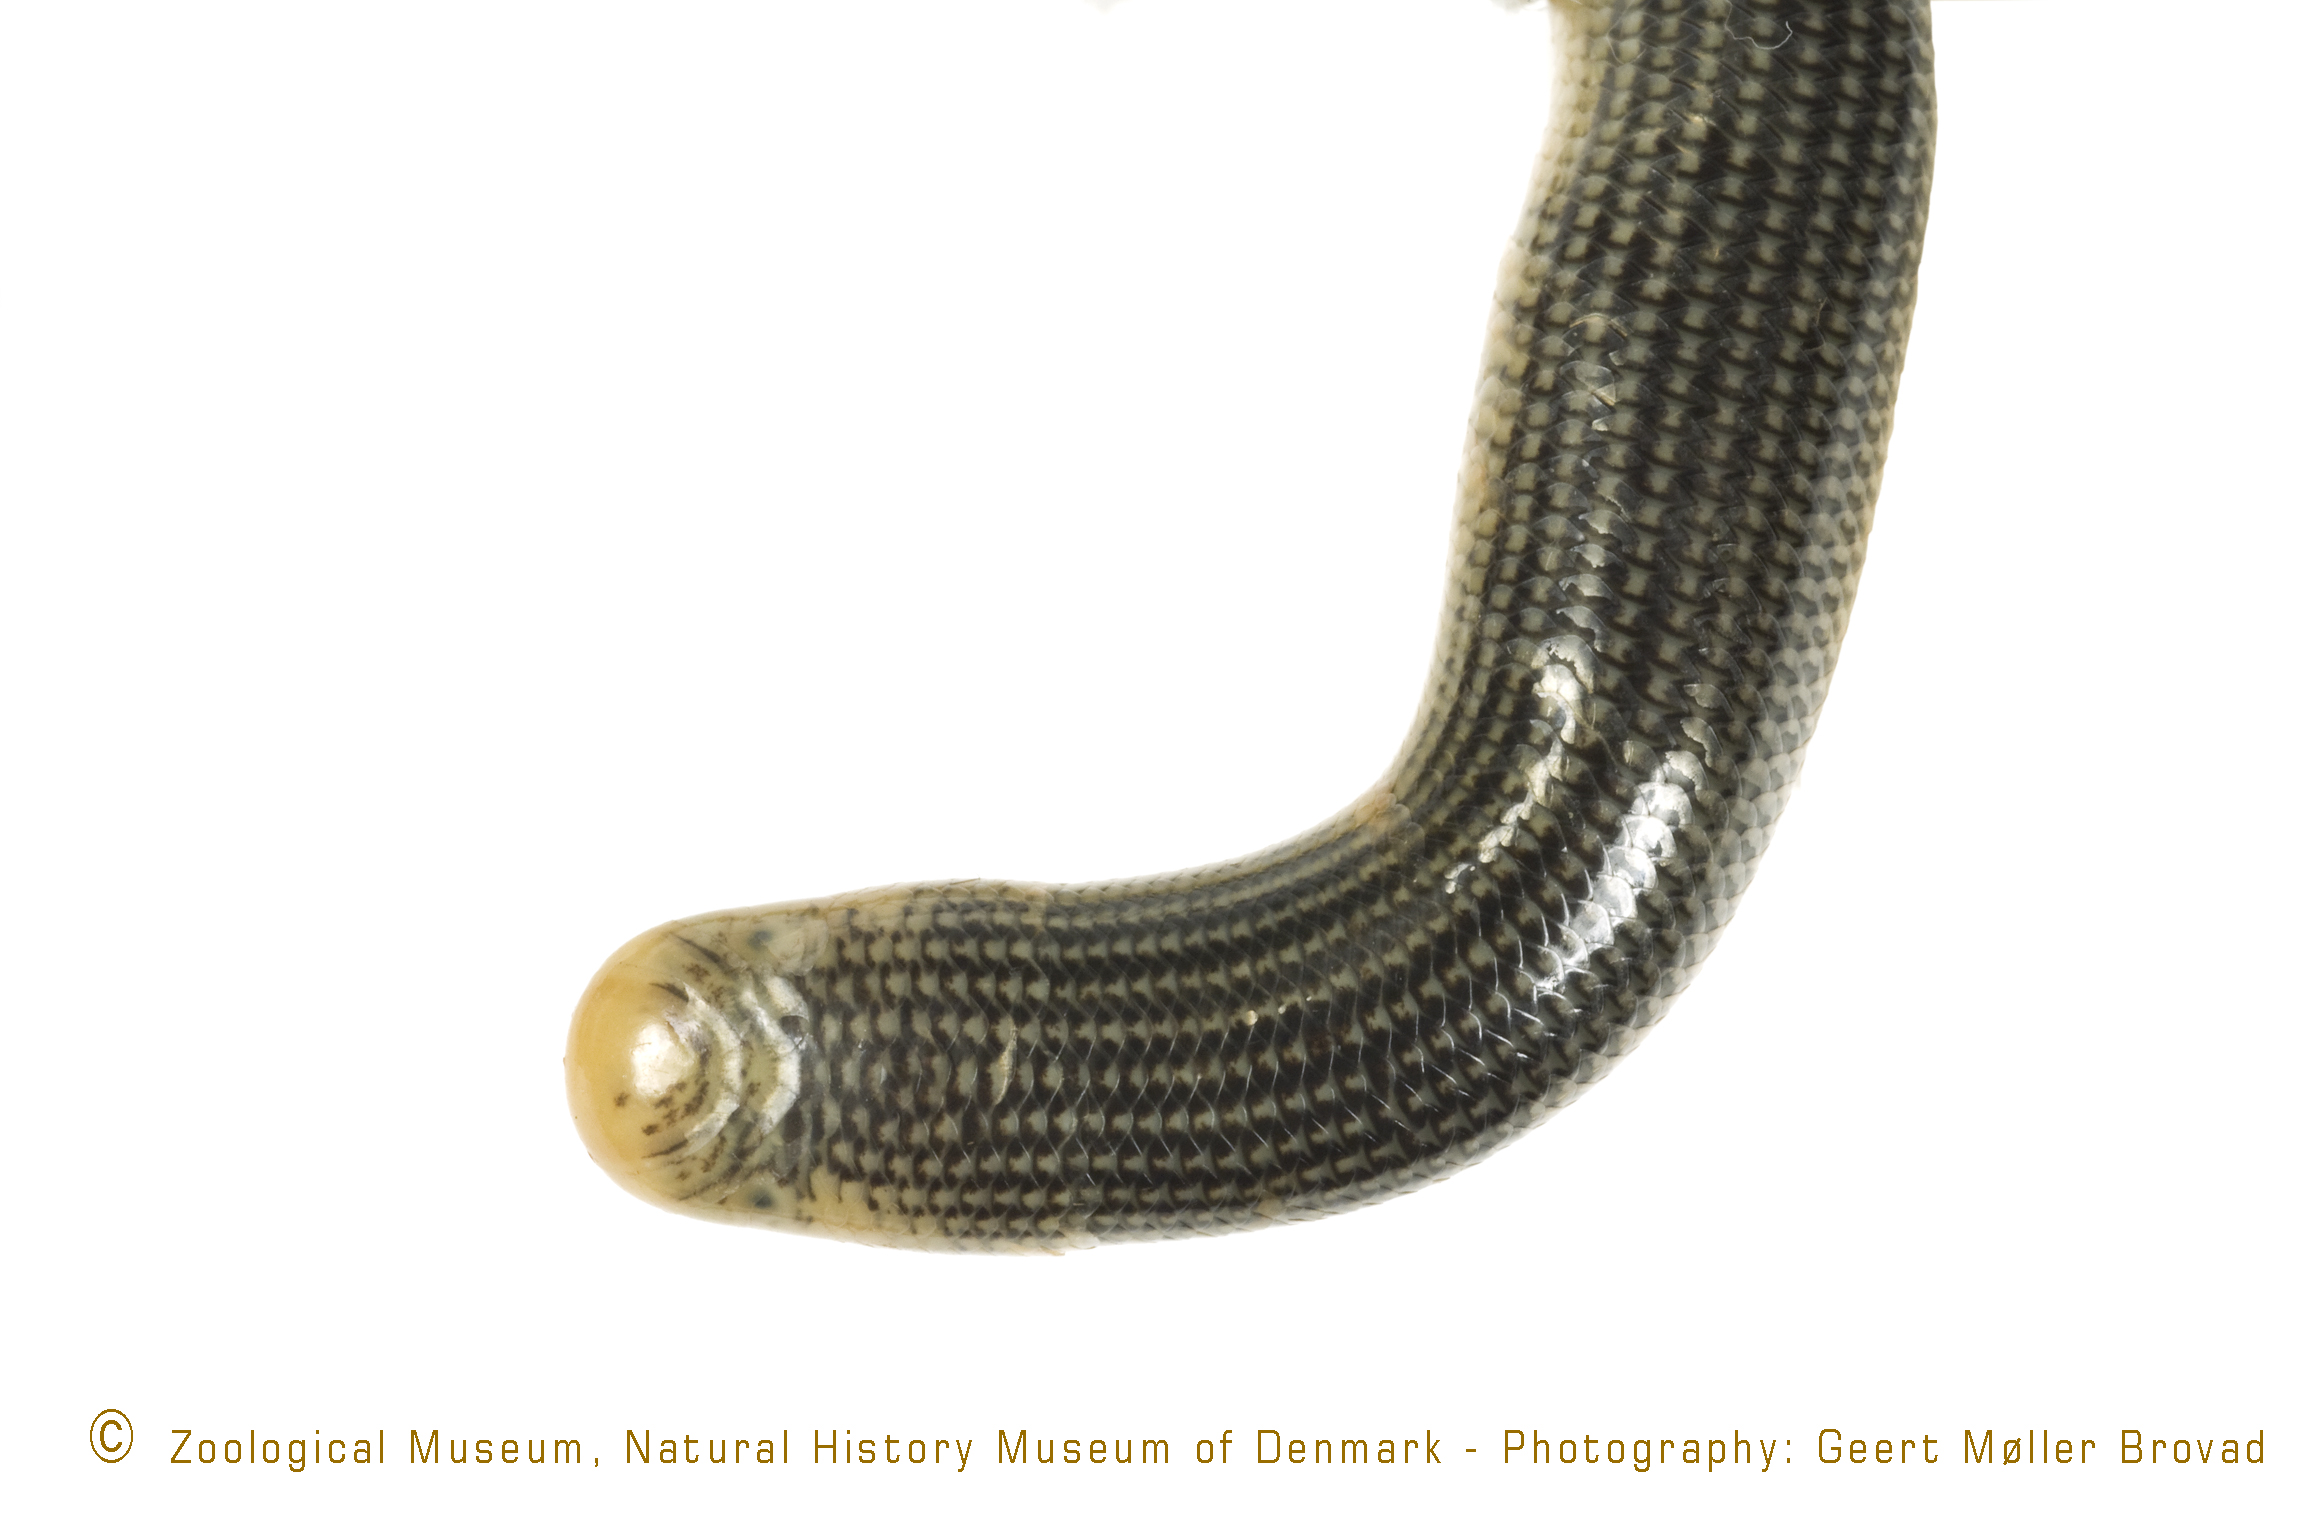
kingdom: Animalia
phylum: Chordata
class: Squamata
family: Typhlopidae
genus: Afrotyphlops
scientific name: Afrotyphlops gierrai
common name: Usambara spotted worm snake
